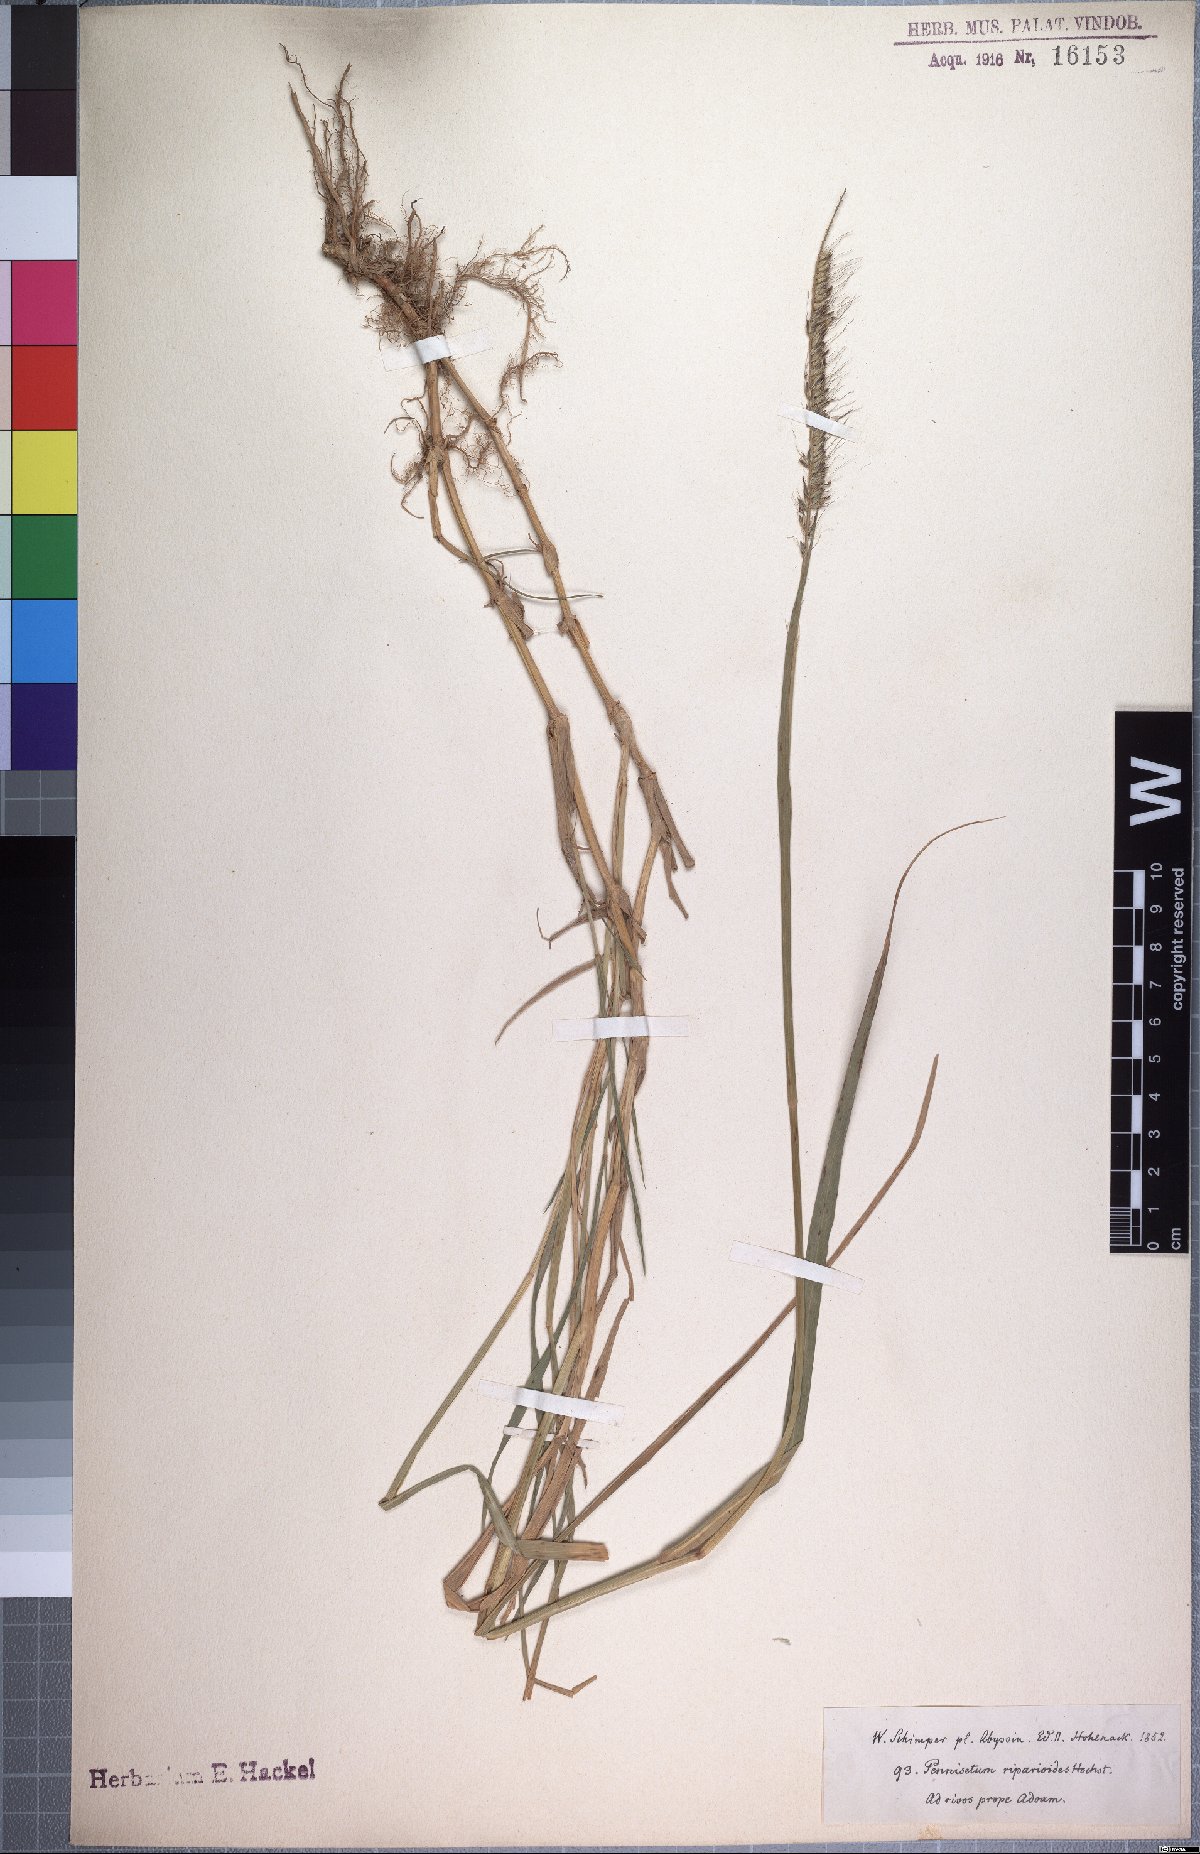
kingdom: Plantae
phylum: Tracheophyta
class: Liliopsida
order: Poales
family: Poaceae
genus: Cenchrus
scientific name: Cenchrus caudatus
